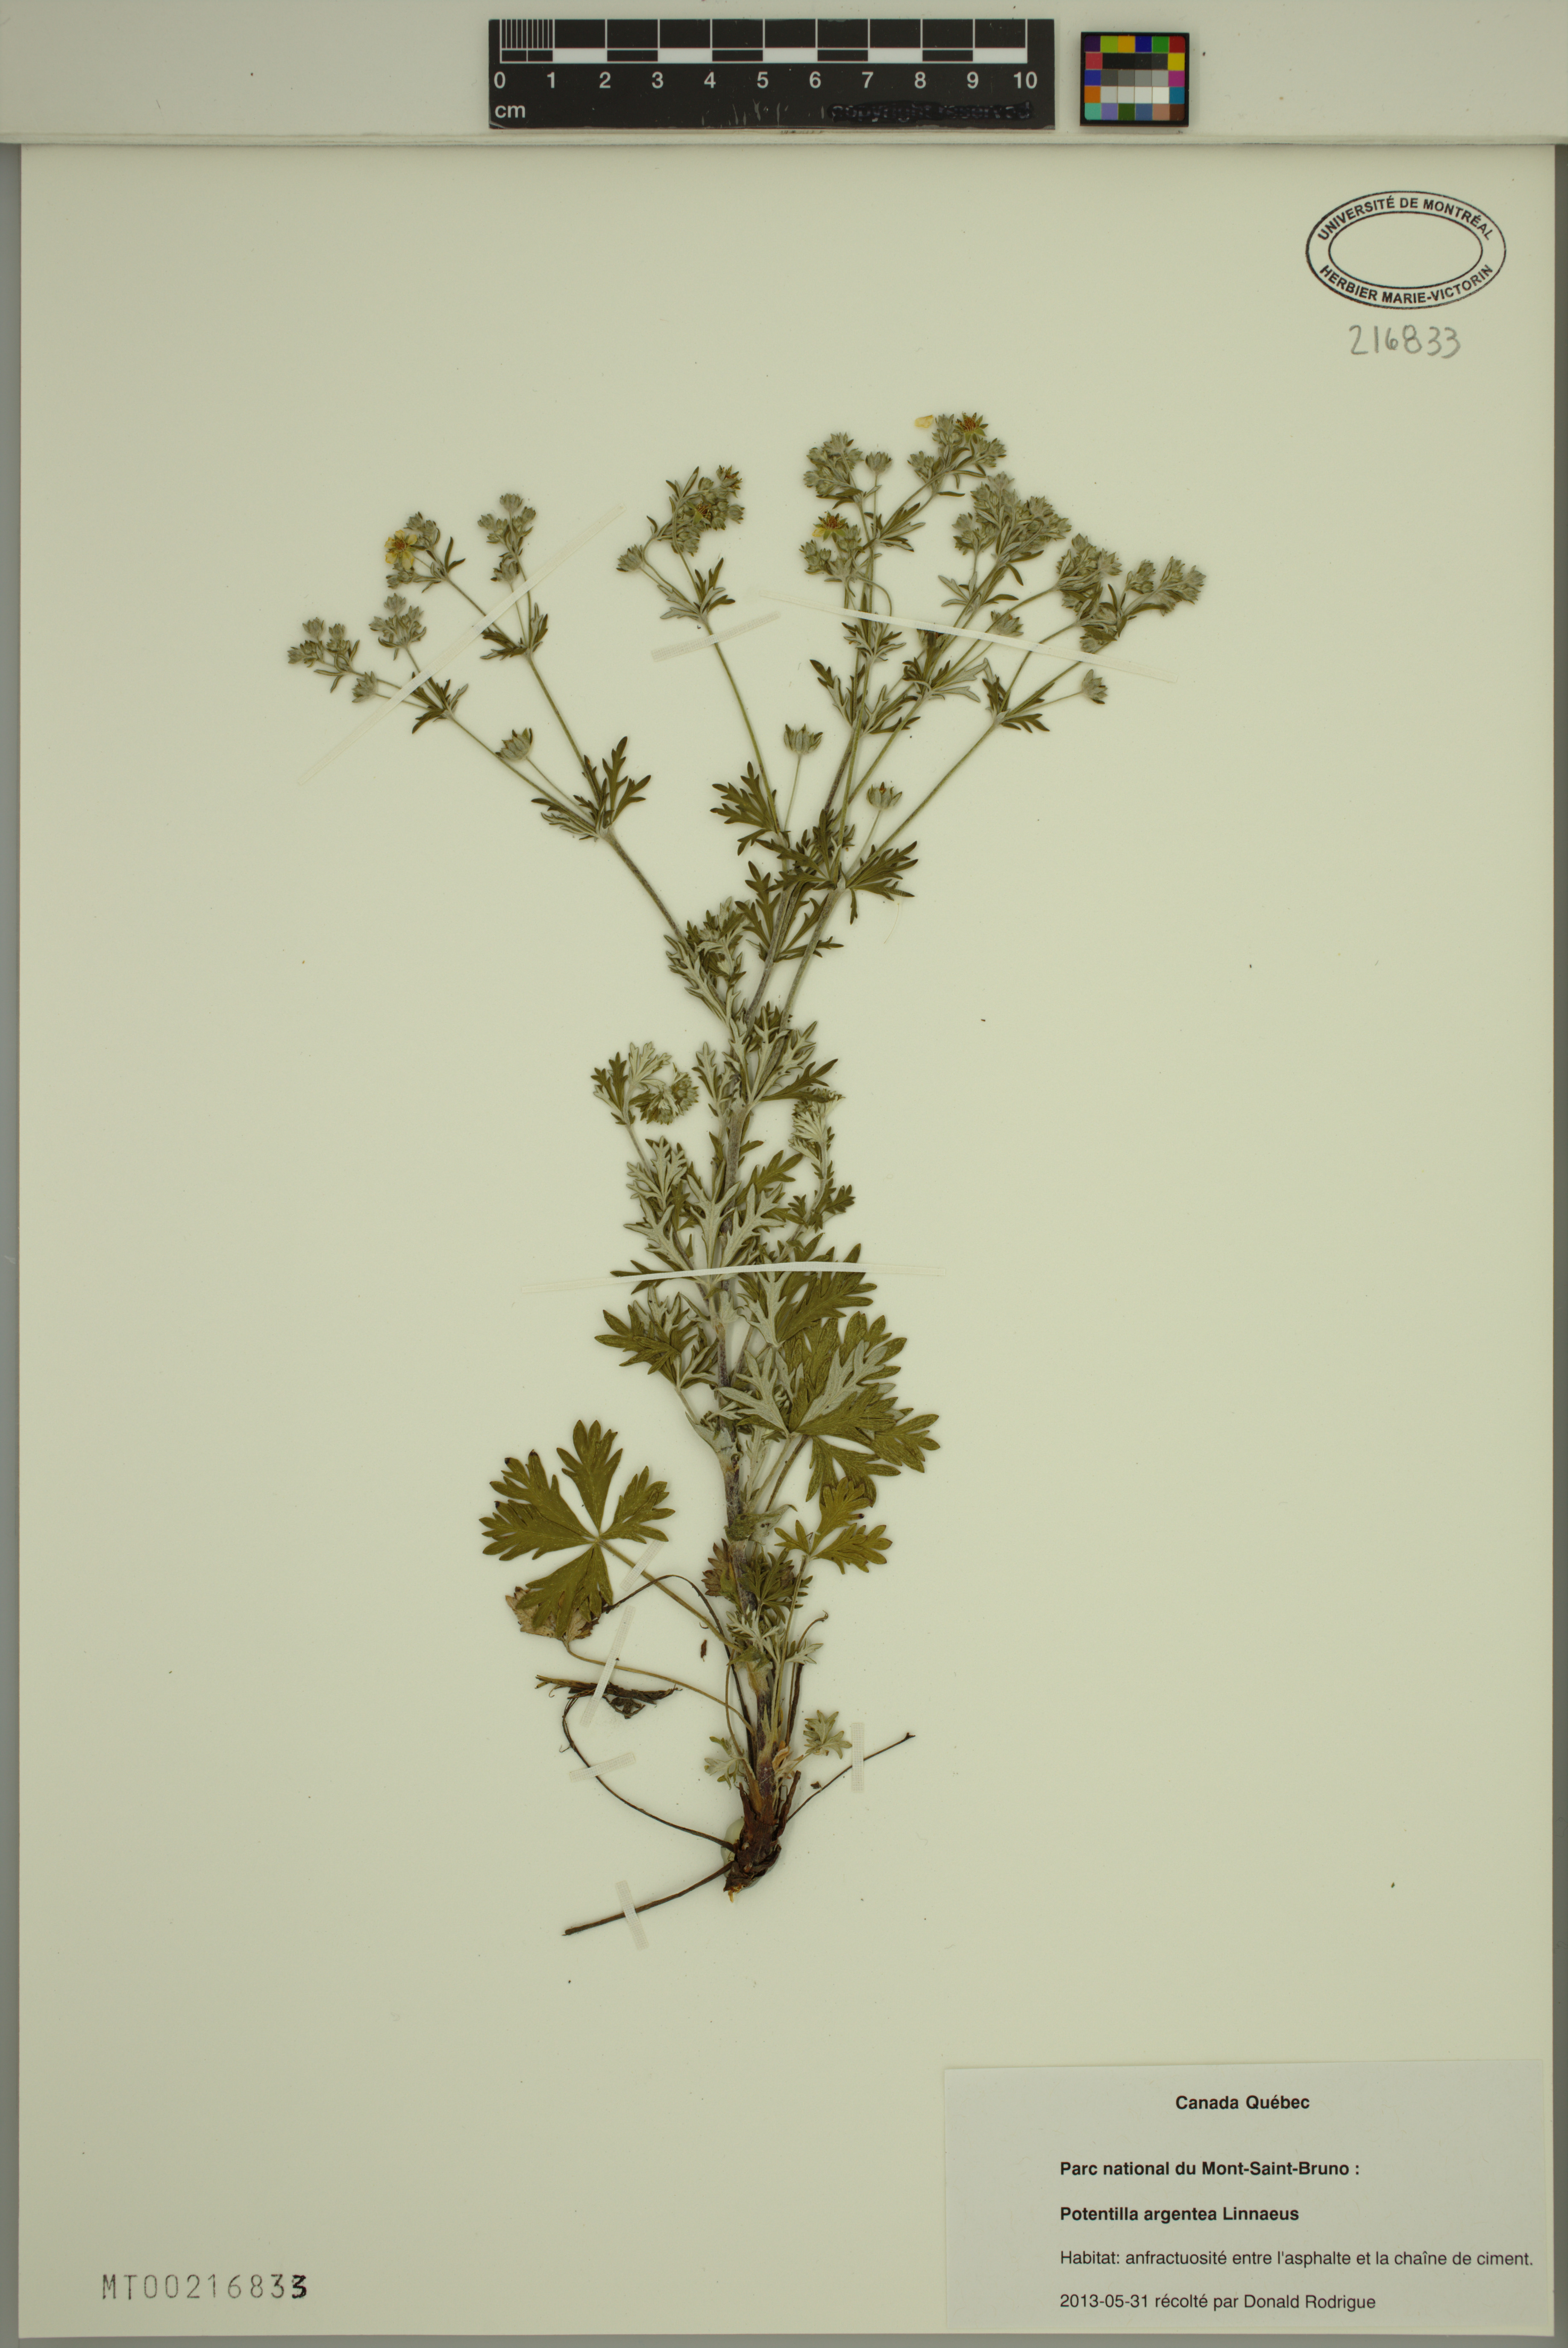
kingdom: Plantae
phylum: Tracheophyta
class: Magnoliopsida
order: Rosales
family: Rosaceae
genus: Potentilla
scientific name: Potentilla argentea
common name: Hoary cinquefoil
